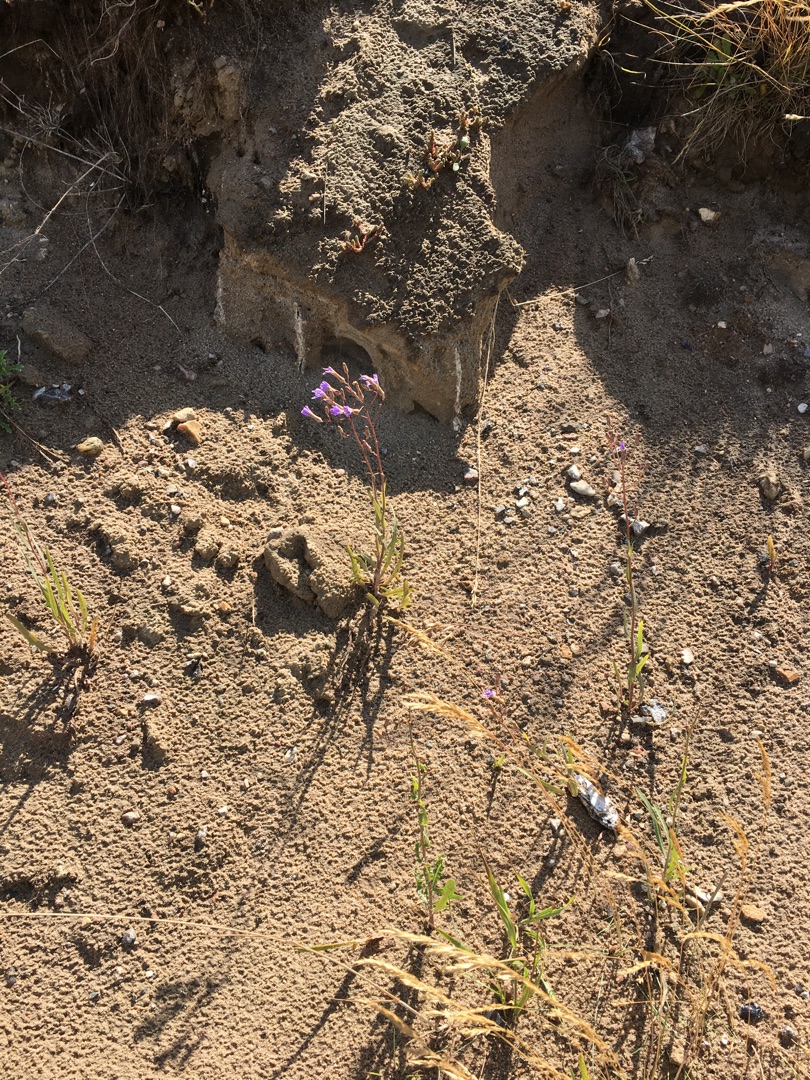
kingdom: Plantae
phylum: Tracheophyta
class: Magnoliopsida
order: Asterales
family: Asteraceae
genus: Lactuca
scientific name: Lactuca tatarica
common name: Strand-salat
